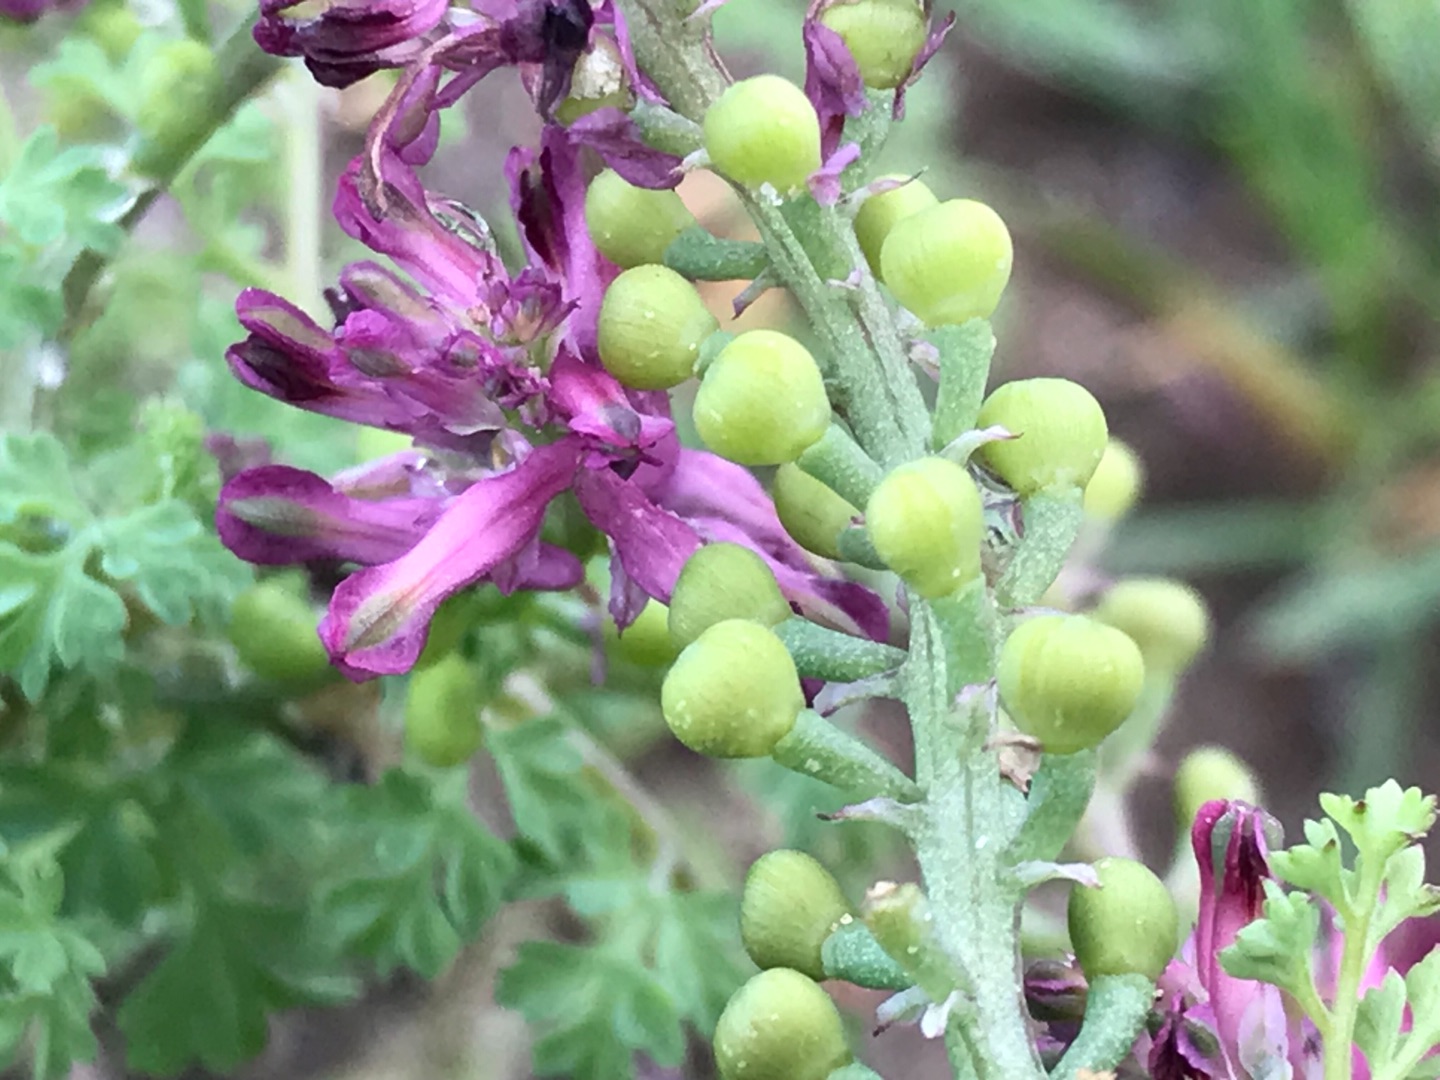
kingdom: Plantae
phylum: Tracheophyta
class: Magnoliopsida
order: Ranunculales
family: Papaveraceae
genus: Fumaria
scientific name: Fumaria officinalis
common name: Læge-jordrøg
